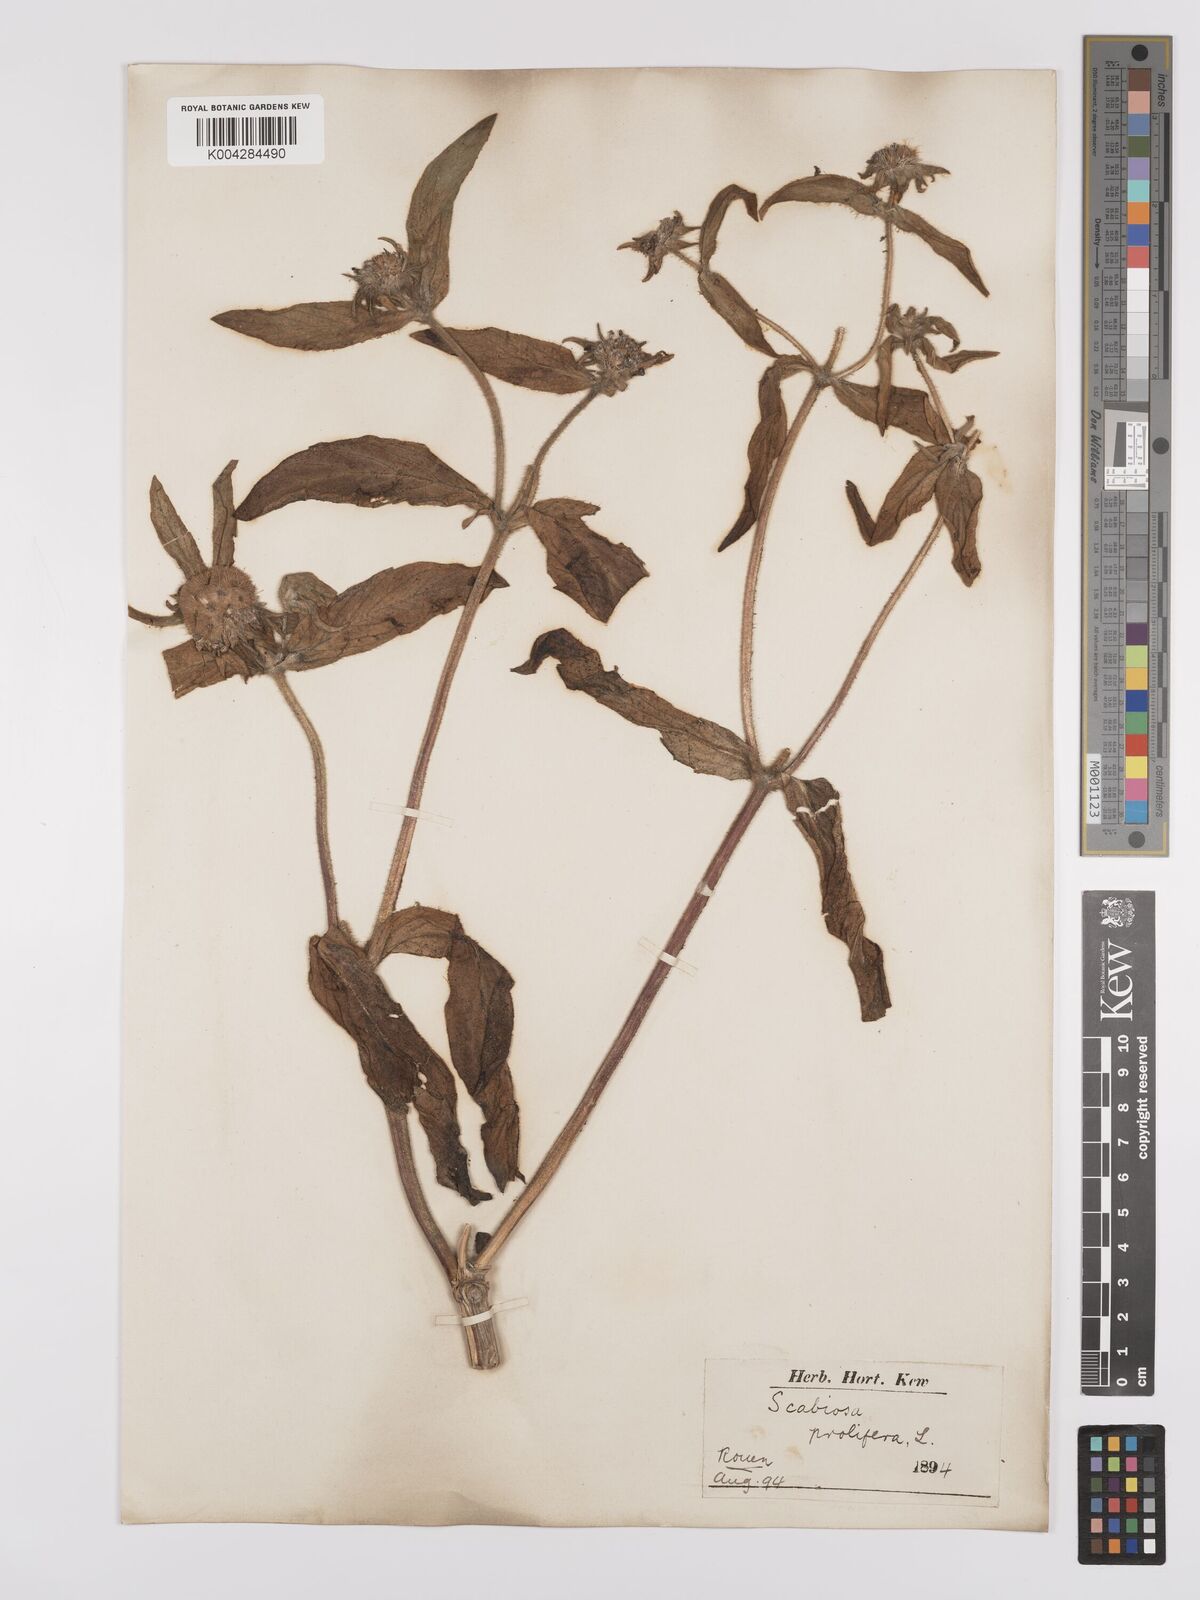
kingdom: Plantae
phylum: Tracheophyta
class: Magnoliopsida
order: Dipsacales
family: Caprifoliaceae
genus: Lomelosia
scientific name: Lomelosia prolifera
